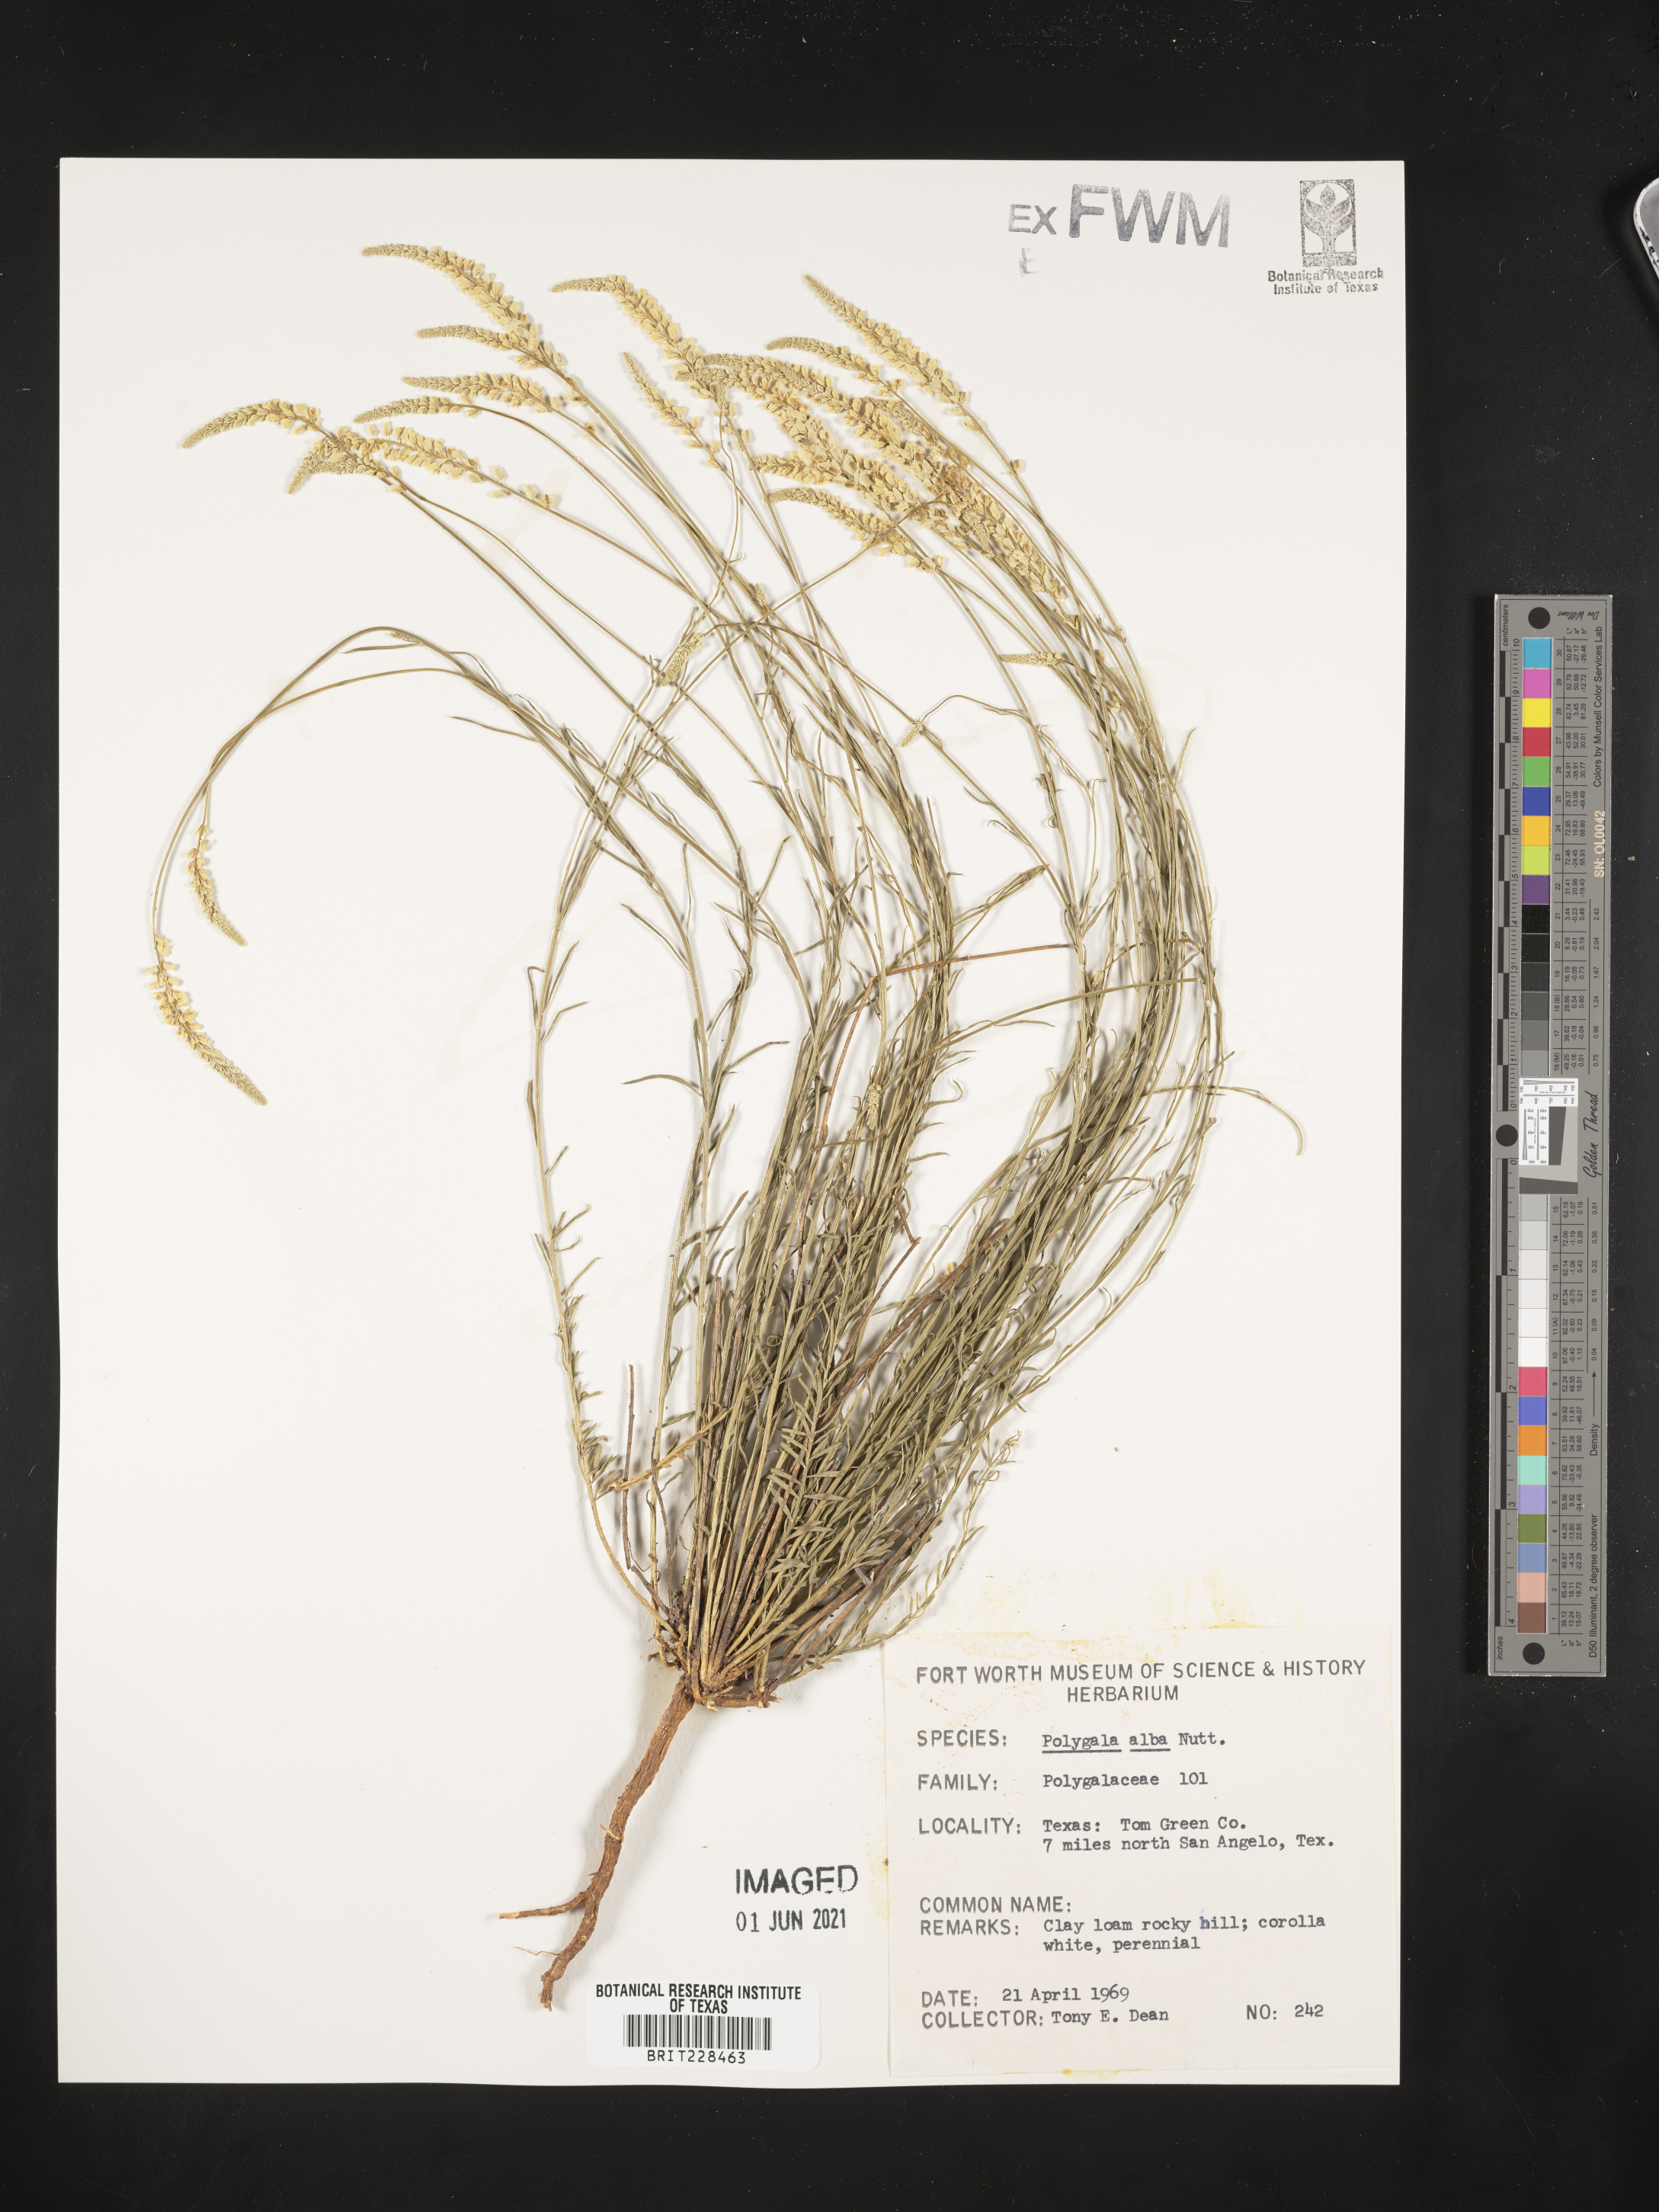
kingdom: Plantae
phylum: Tracheophyta
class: Magnoliopsida
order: Fabales
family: Polygalaceae
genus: Polygala
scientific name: Polygala alba
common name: White milkwort
